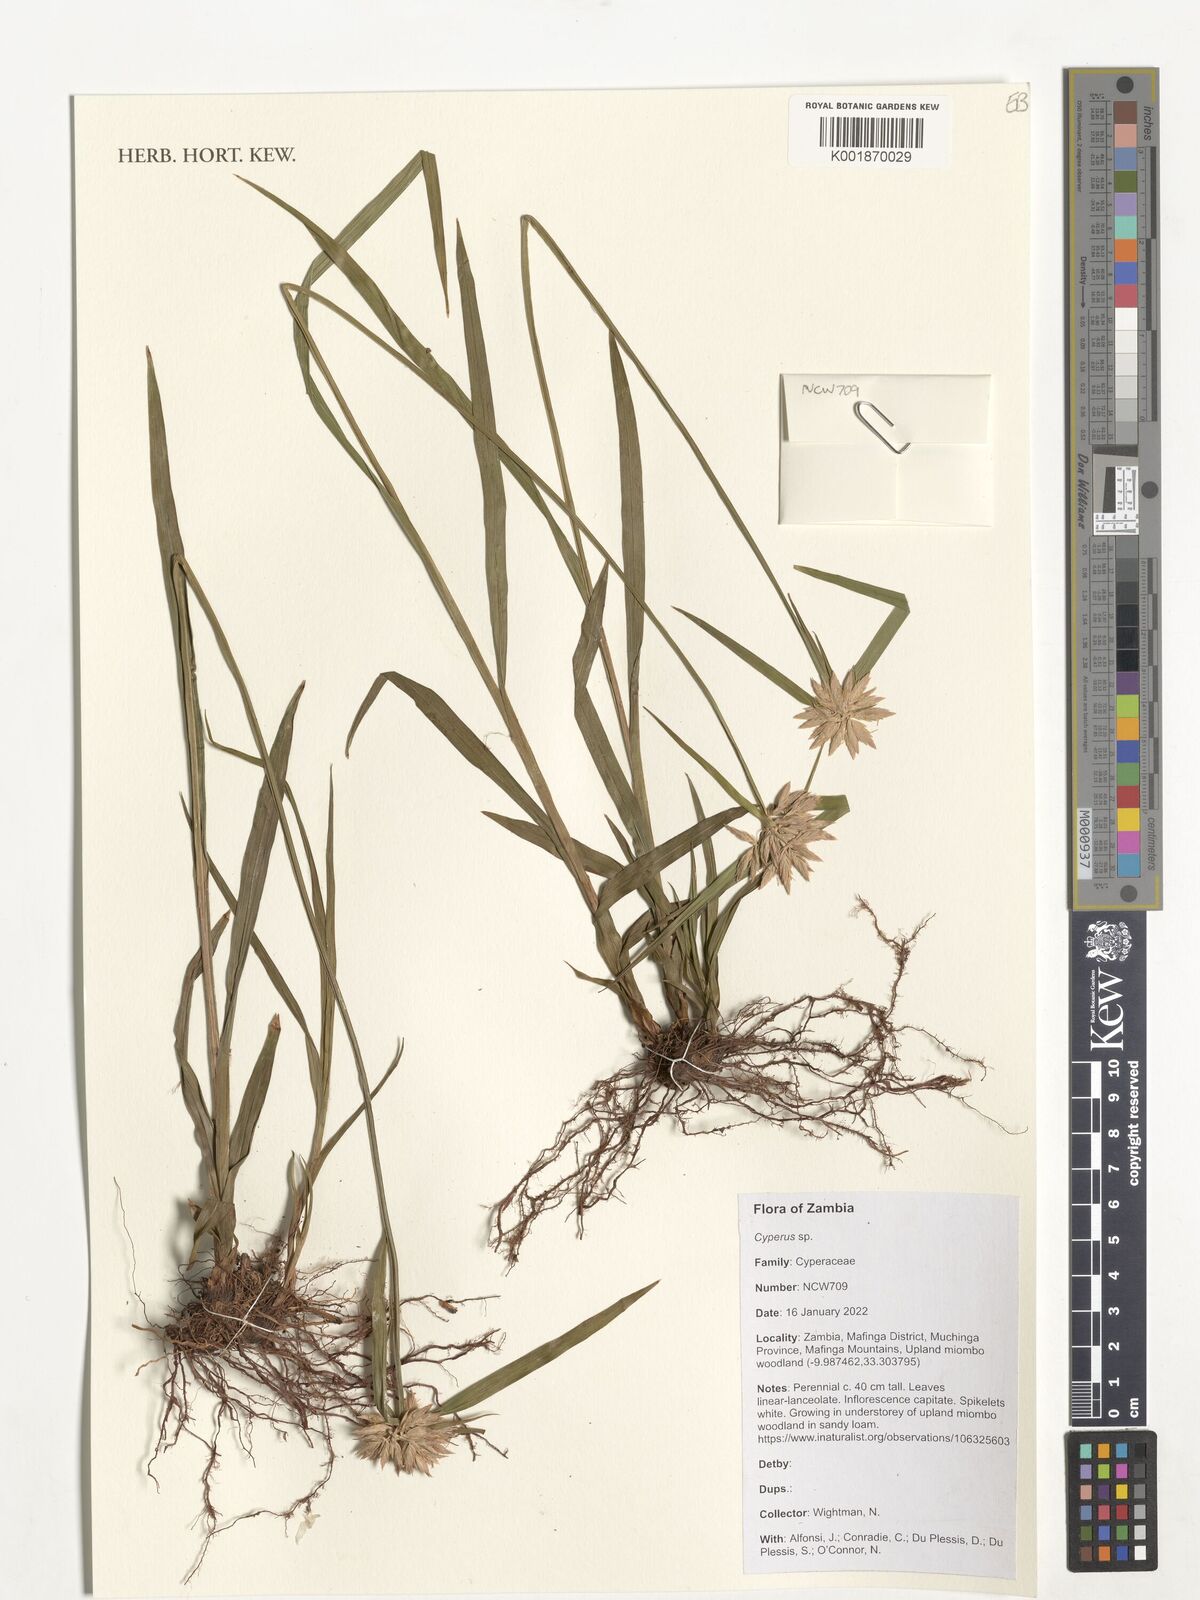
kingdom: Plantae
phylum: Tracheophyta
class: Liliopsida
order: Poales
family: Cyperaceae
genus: Cyperus
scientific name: Cyperus
